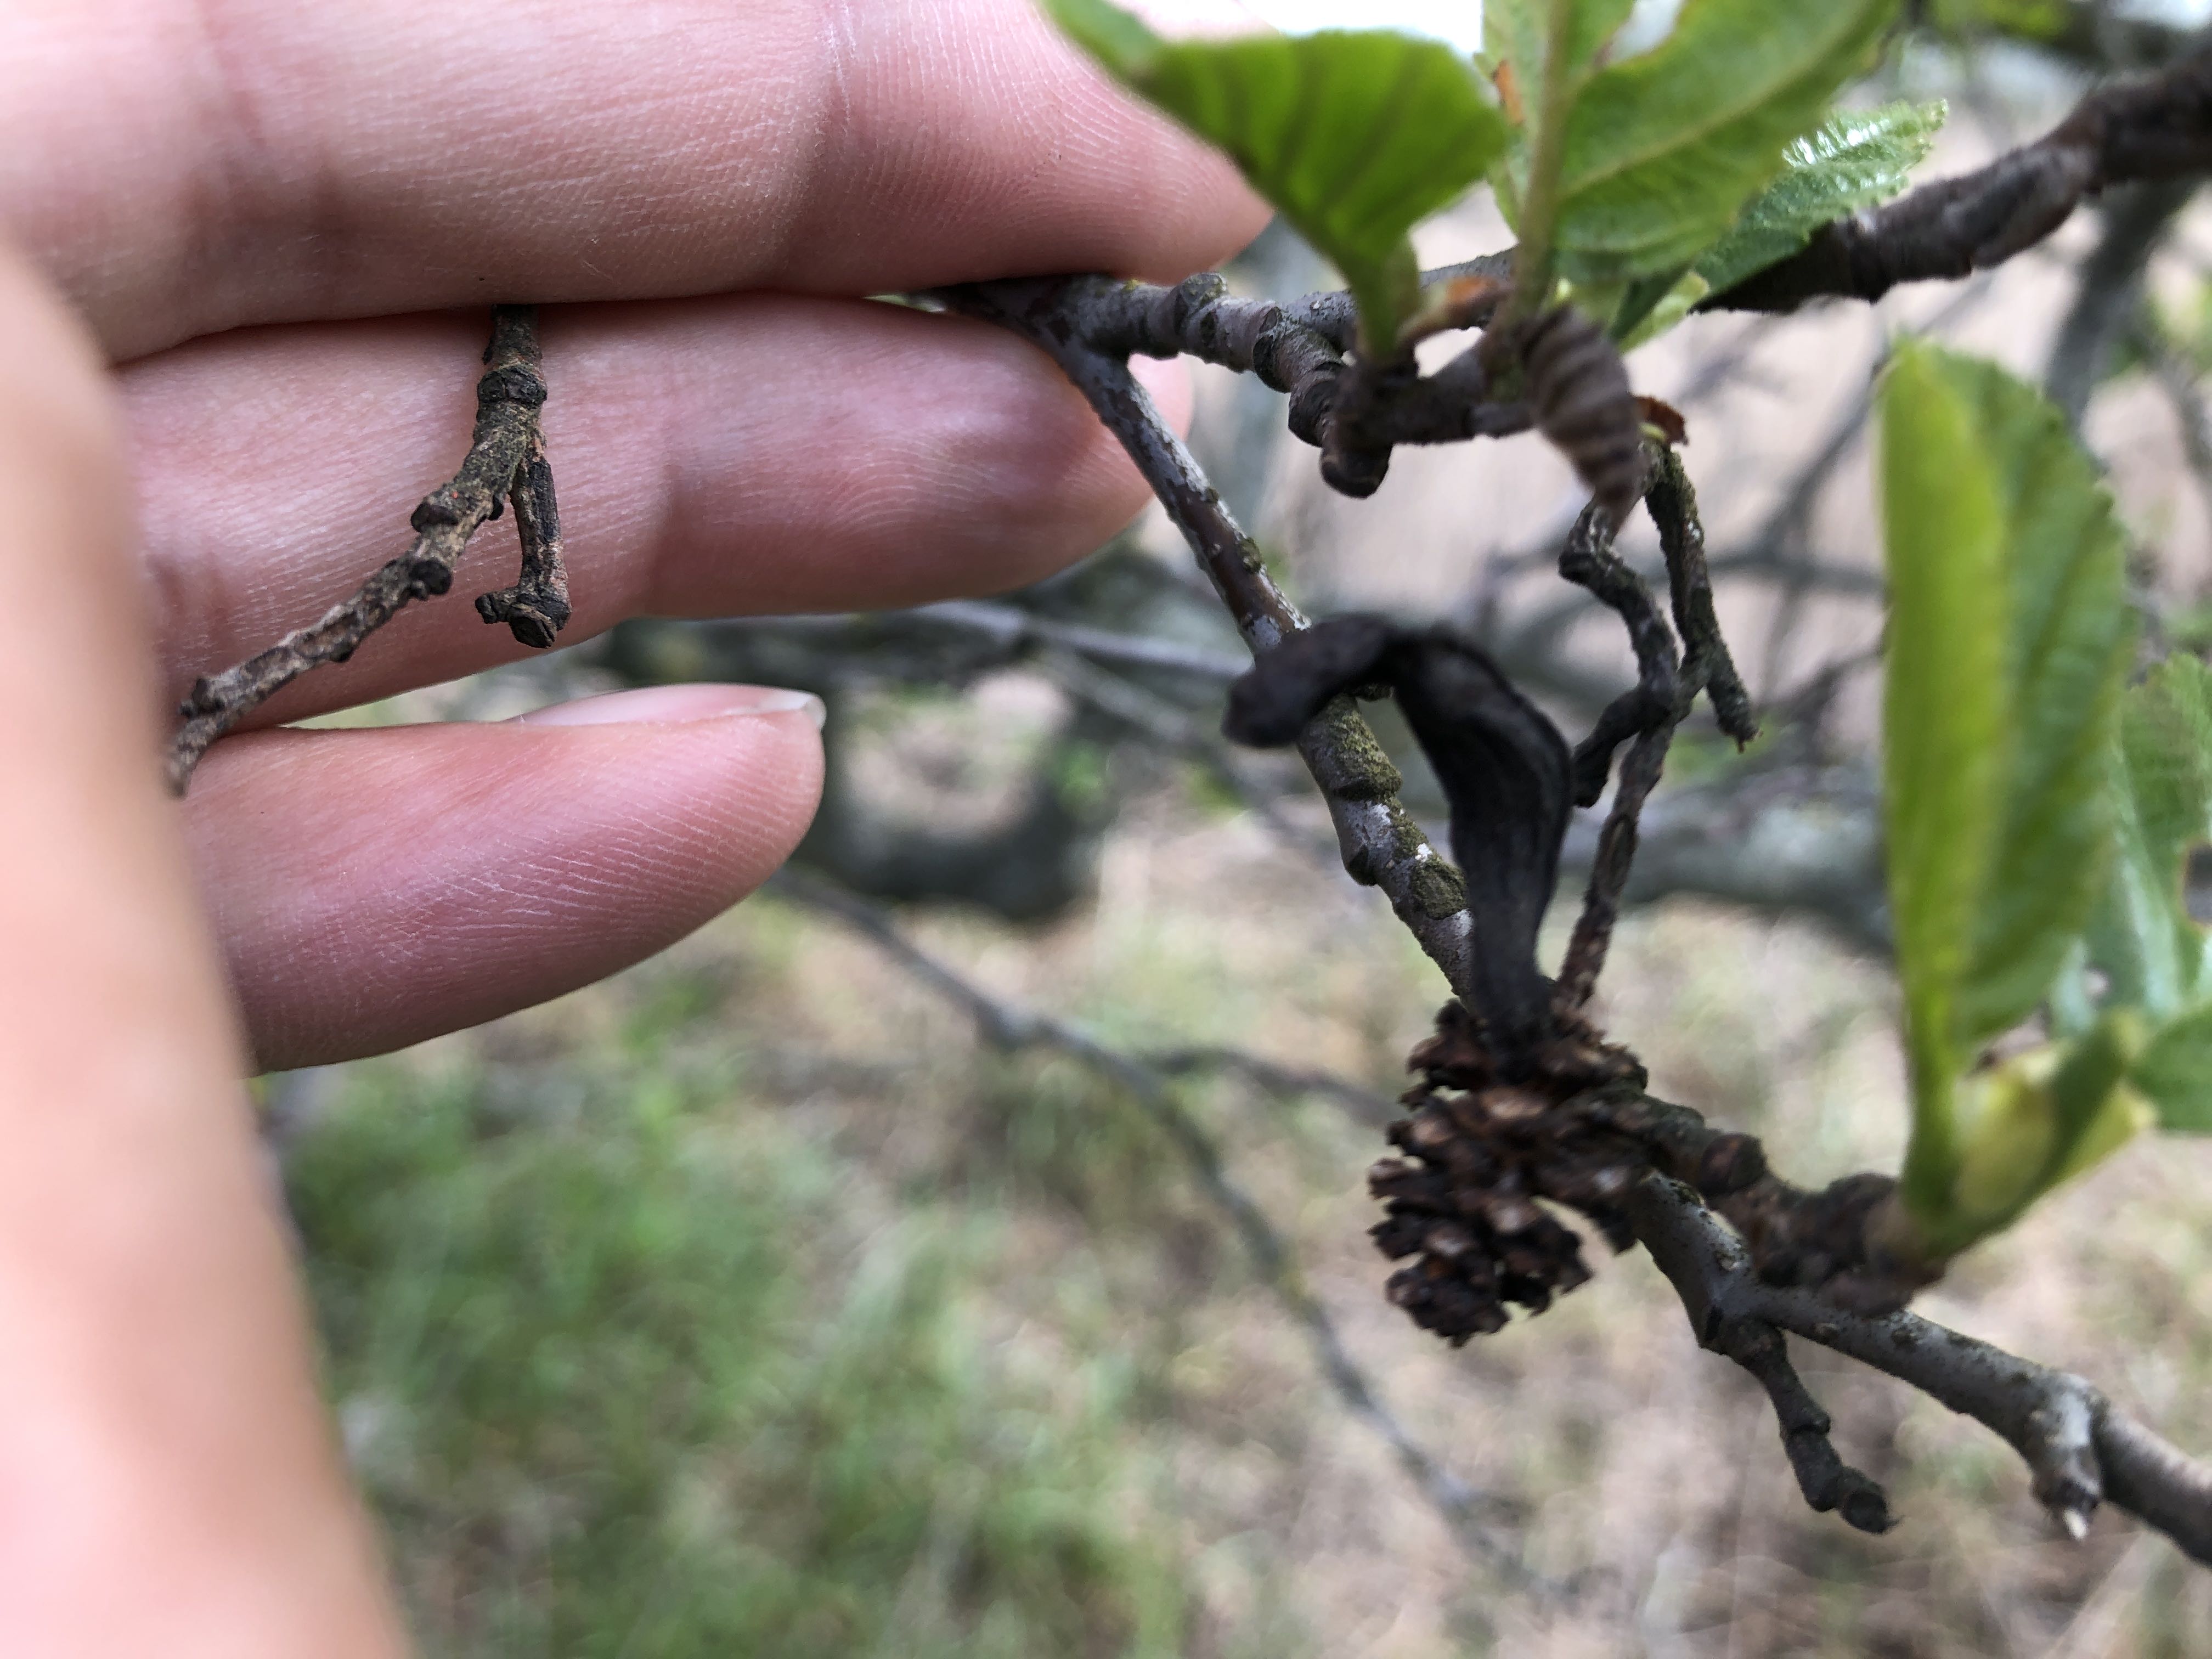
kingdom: Fungi
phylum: Ascomycota
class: Taphrinomycetes
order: Taphrinales
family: Taphrinaceae
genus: Taphrina
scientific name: Taphrina alni
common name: Alder tongue
